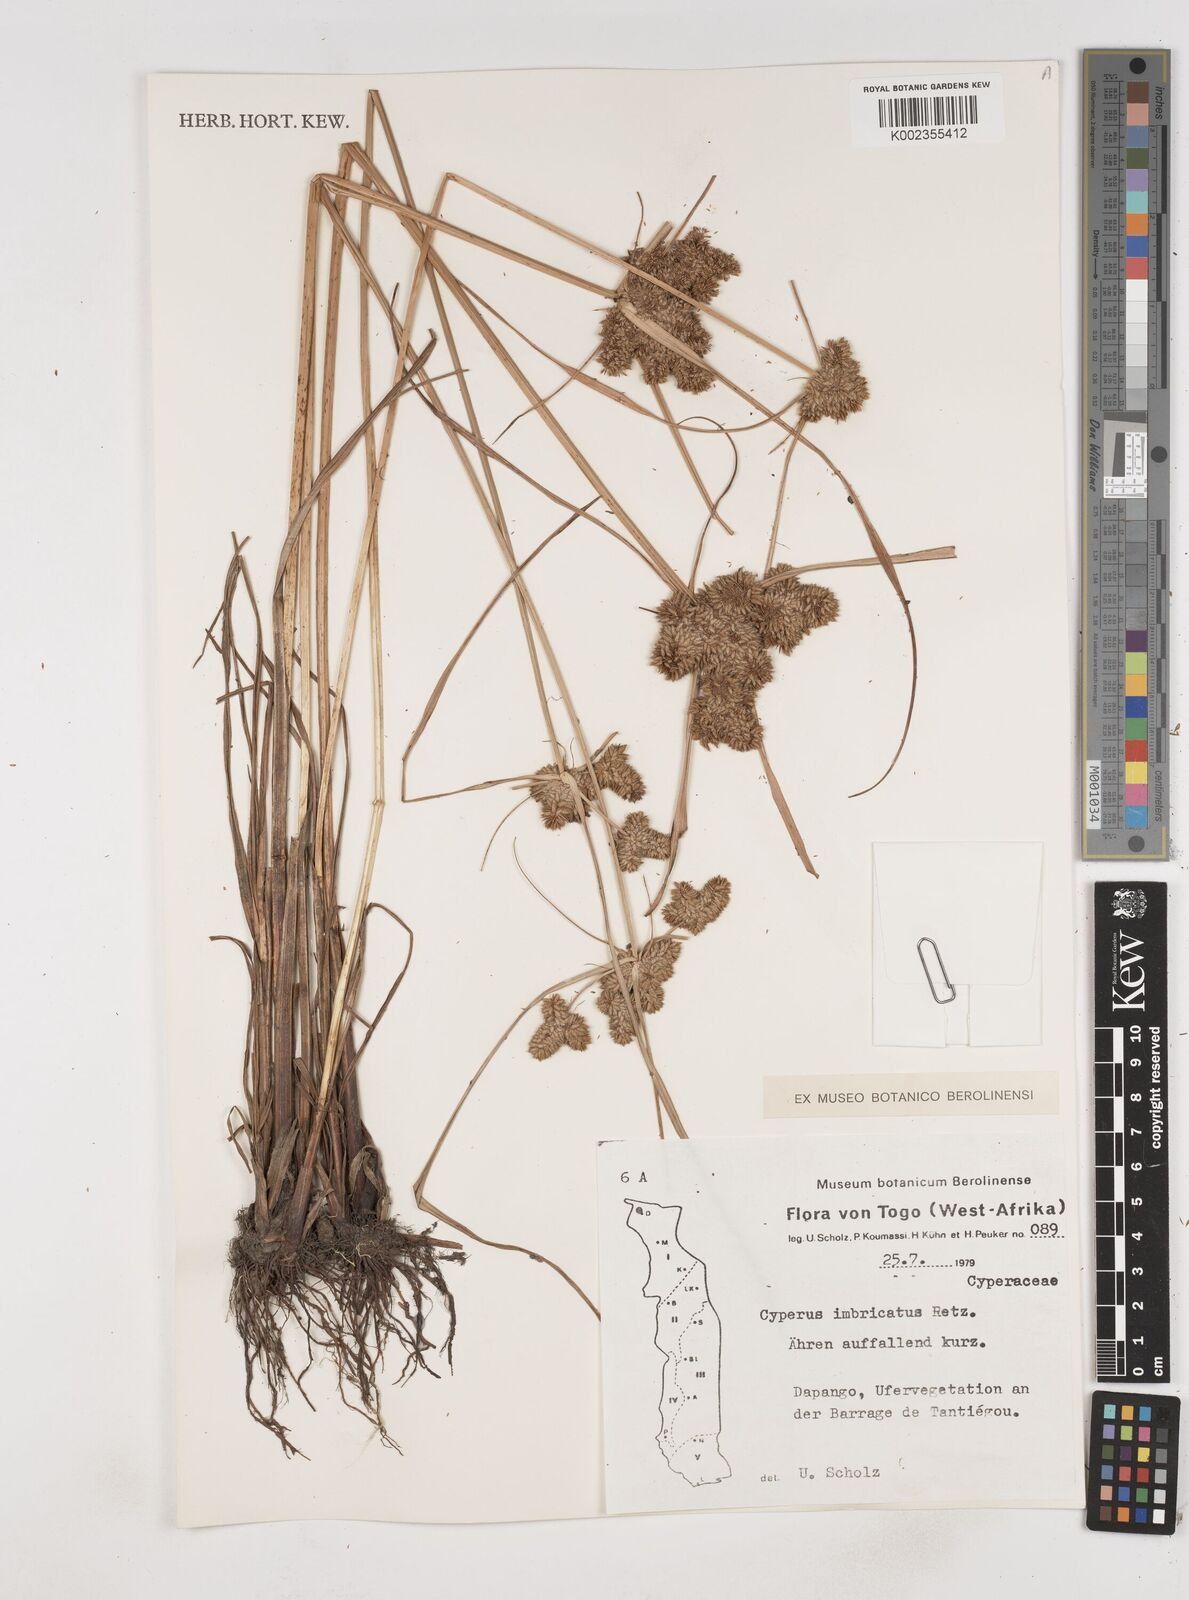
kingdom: Plantae
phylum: Tracheophyta
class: Liliopsida
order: Poales
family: Cyperaceae
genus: Cyperus
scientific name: Cyperus imbricatus
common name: Shingle flatsedge
